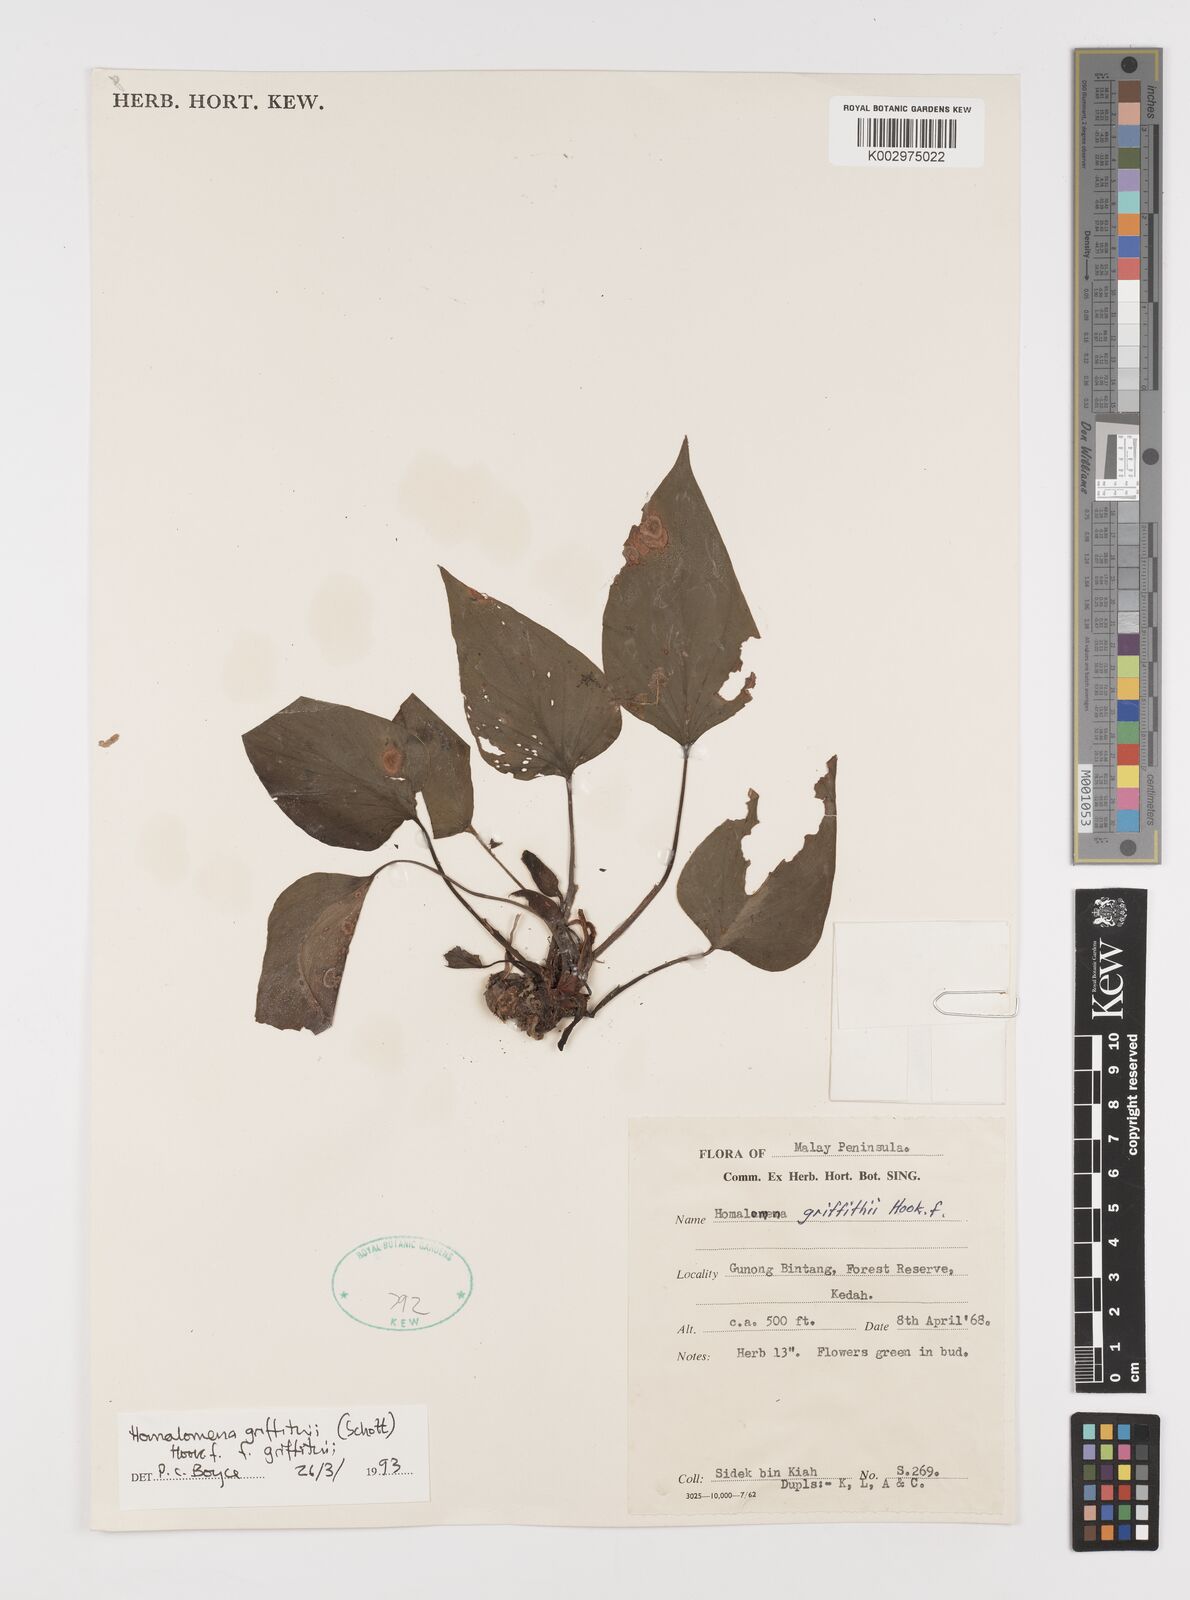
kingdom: Plantae
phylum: Tracheophyta
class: Liliopsida
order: Alismatales
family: Araceae
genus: Homalomena
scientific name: Homalomena griffithii
